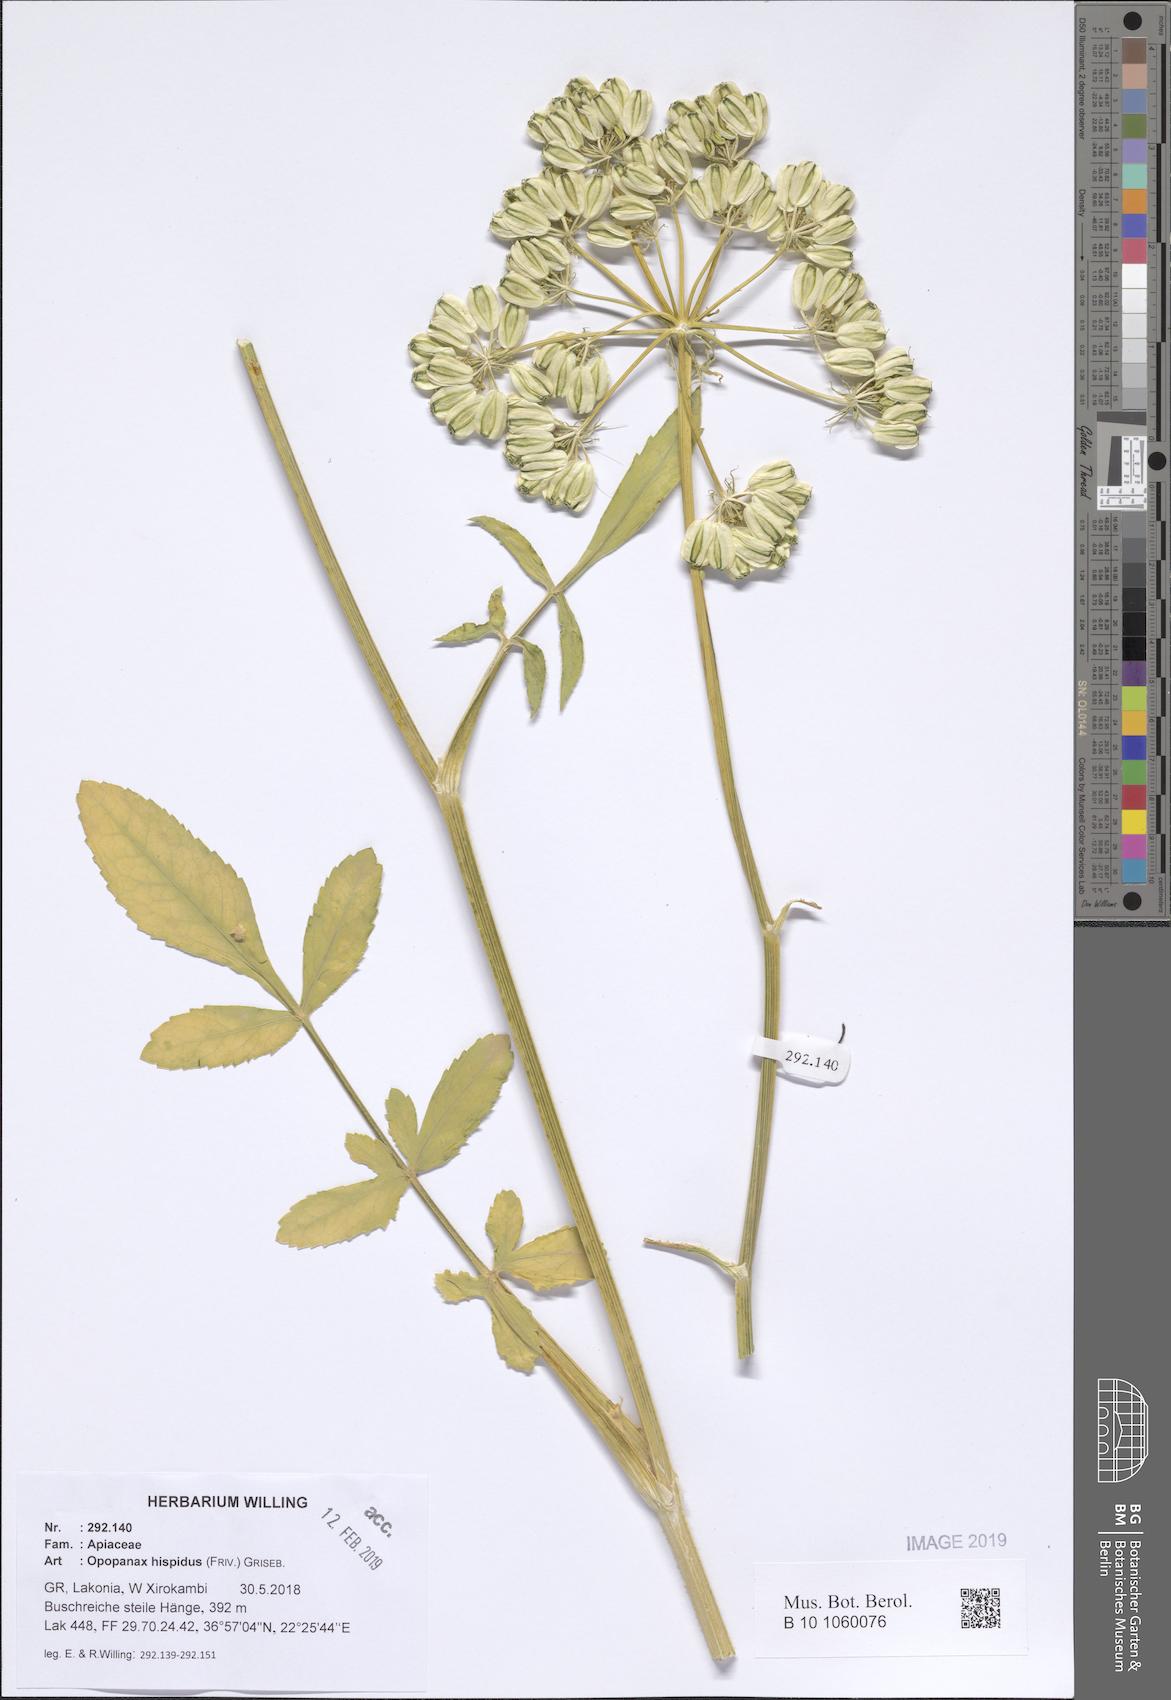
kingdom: Plantae
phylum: Tracheophyta
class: Magnoliopsida
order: Apiales
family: Apiaceae
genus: Opopanax
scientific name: Opopanax hispidus
